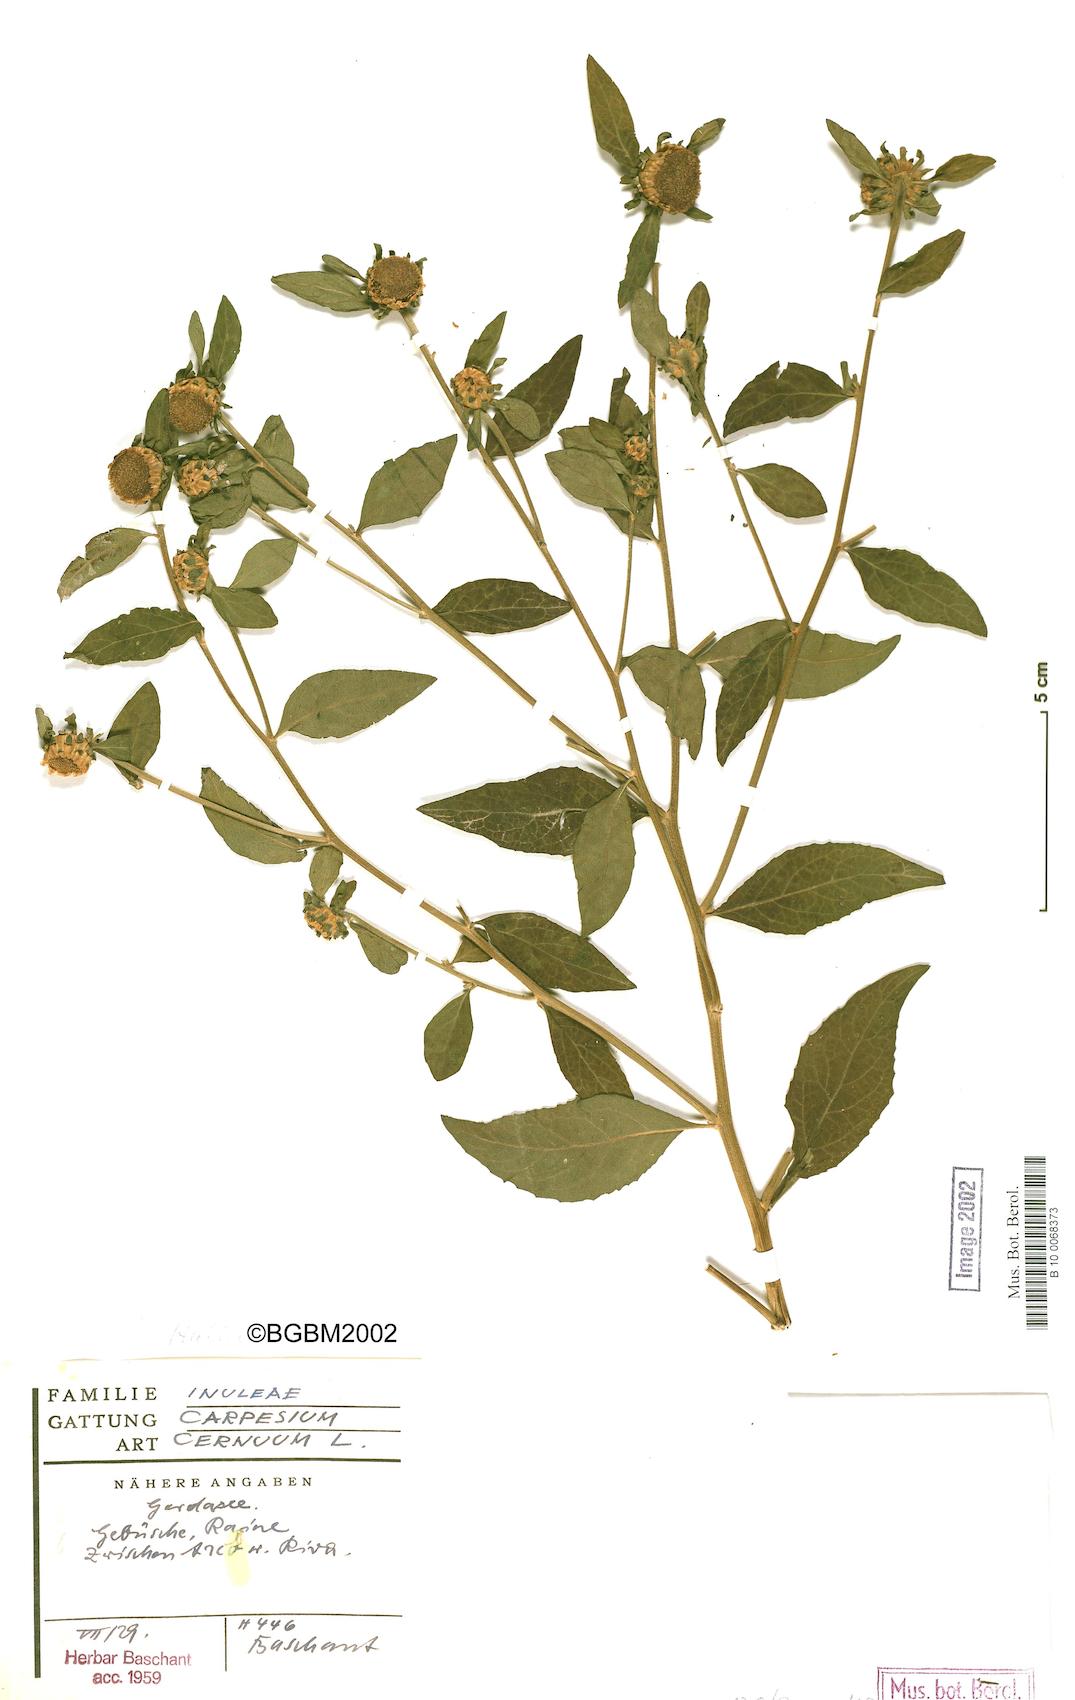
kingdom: Plantae
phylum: Tracheophyta
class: Magnoliopsida
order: Asterales
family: Asteraceae
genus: Carpesium
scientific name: Carpesium cernuum
